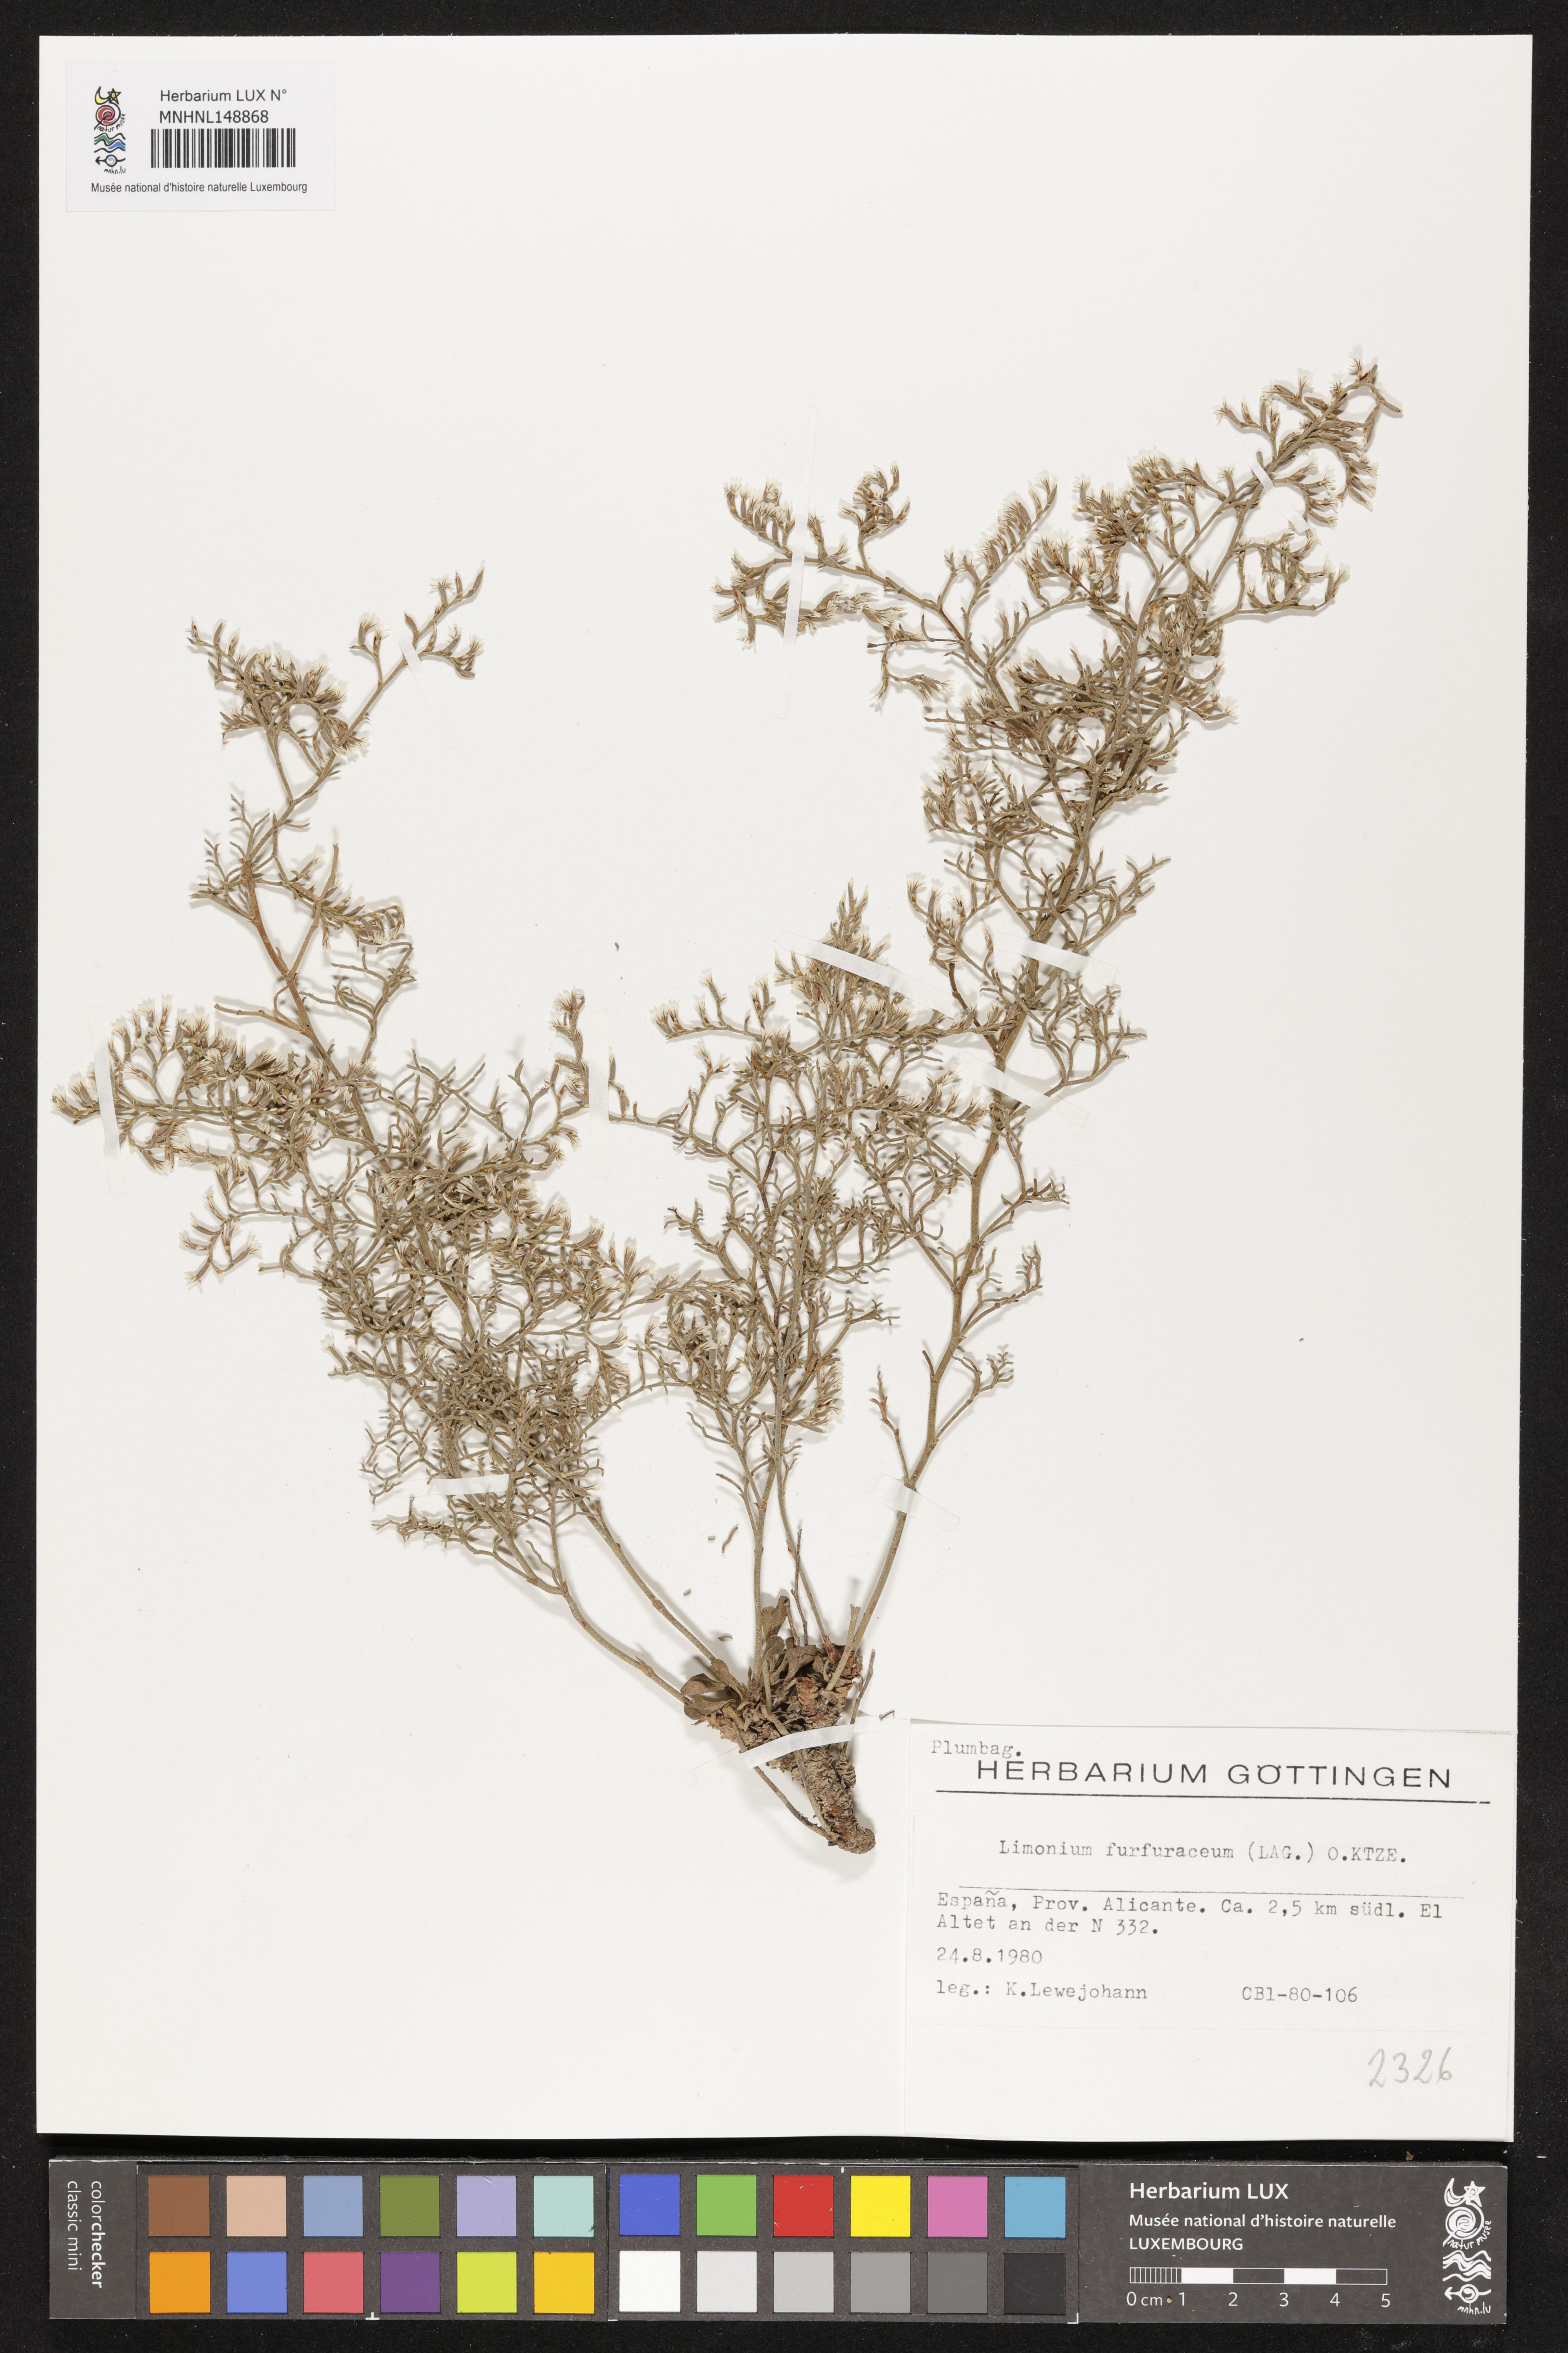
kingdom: Plantae
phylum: Tracheophyta
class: Magnoliopsida
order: Caryophyllales
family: Plumbaginaceae
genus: Limonium
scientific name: Limonium furfuraceum
